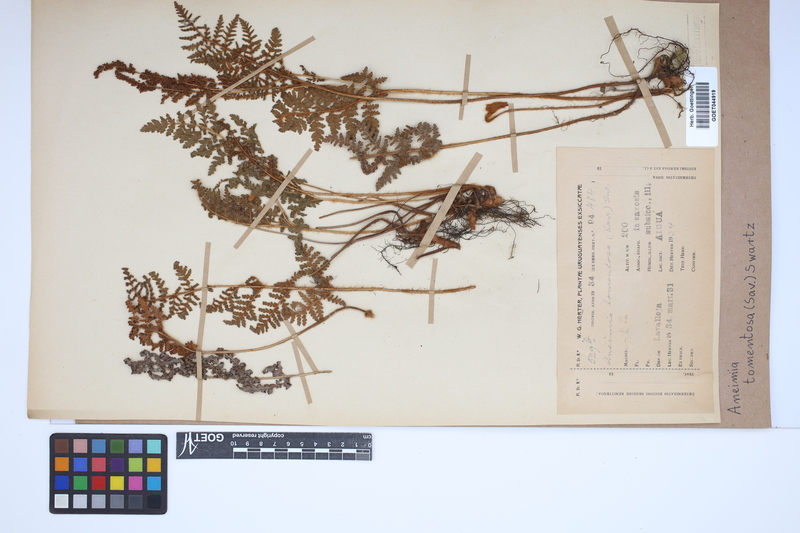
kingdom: Plantae
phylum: Tracheophyta
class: Polypodiopsida
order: Schizaeales
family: Anemiaceae
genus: Anemia
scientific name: Anemia tomentosa
